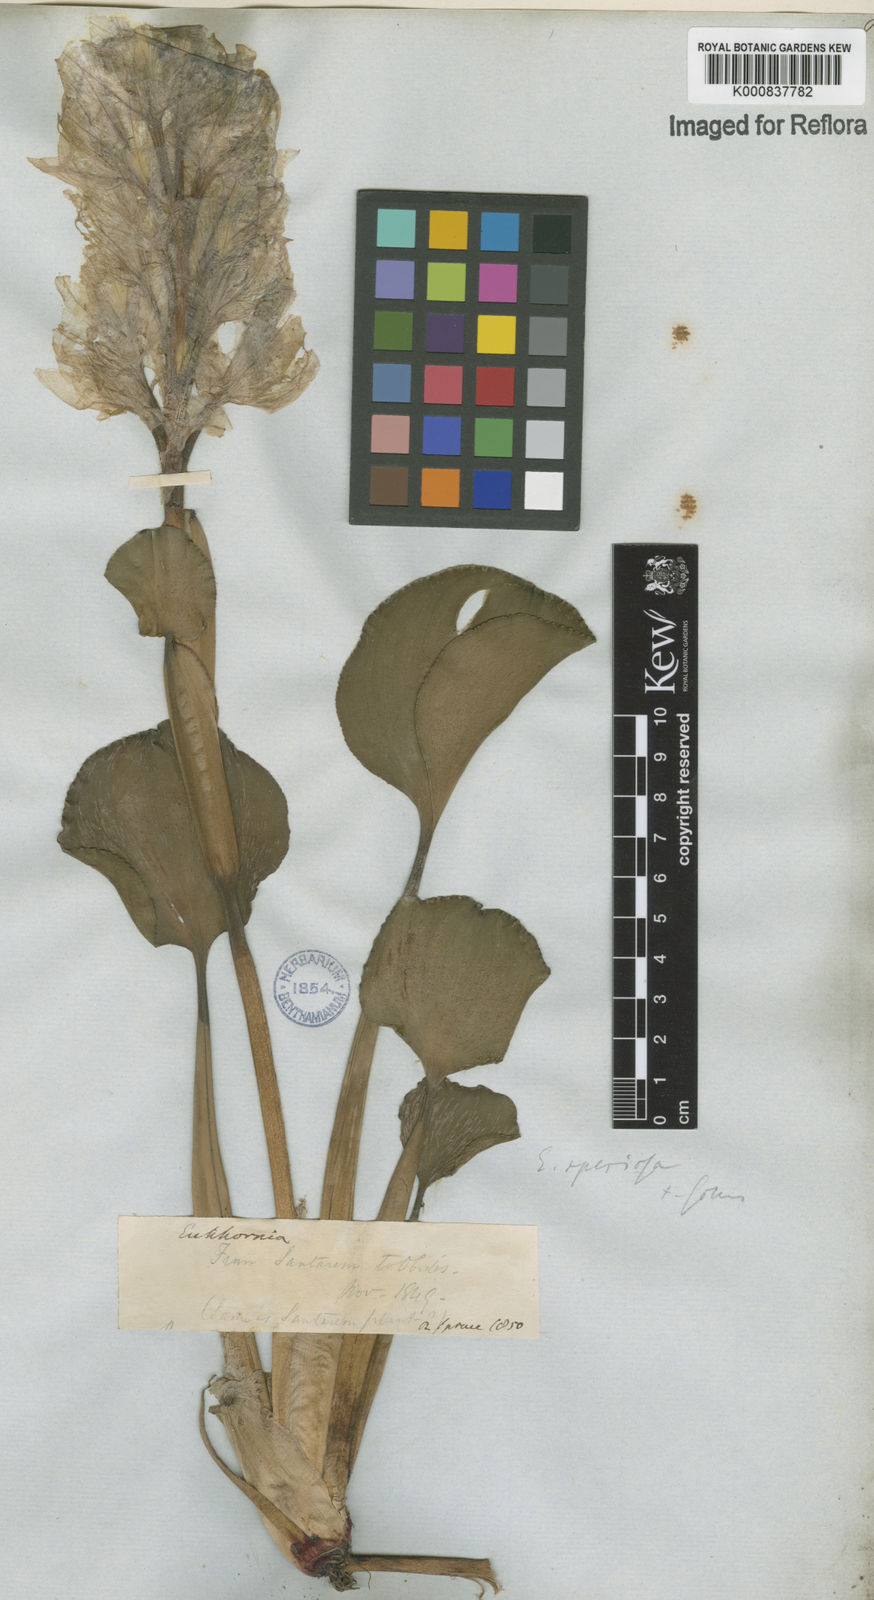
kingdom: Plantae
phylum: Tracheophyta
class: Liliopsida
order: Commelinales
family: Pontederiaceae
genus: Pontederia
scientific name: Pontederia crassipes
